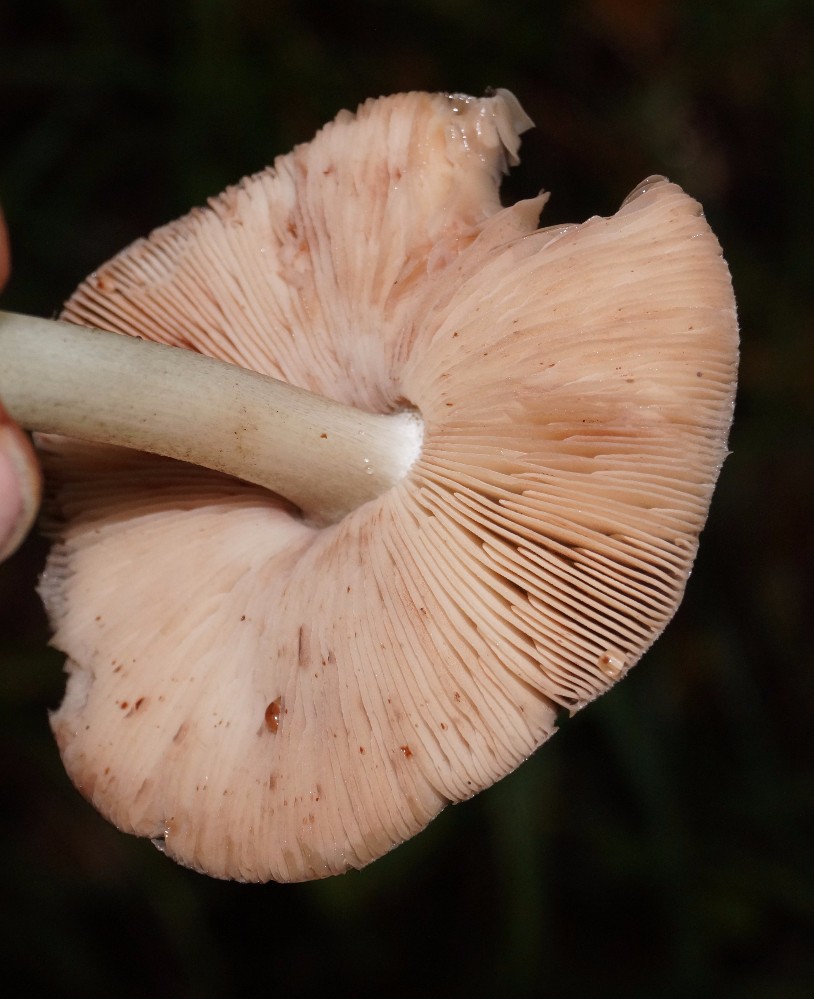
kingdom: Fungi
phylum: Basidiomycota
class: Agaricomycetes
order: Agaricales
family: Pluteaceae
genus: Pluteus
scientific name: Pluteus cervinus
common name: sodfarvet skærmhat
